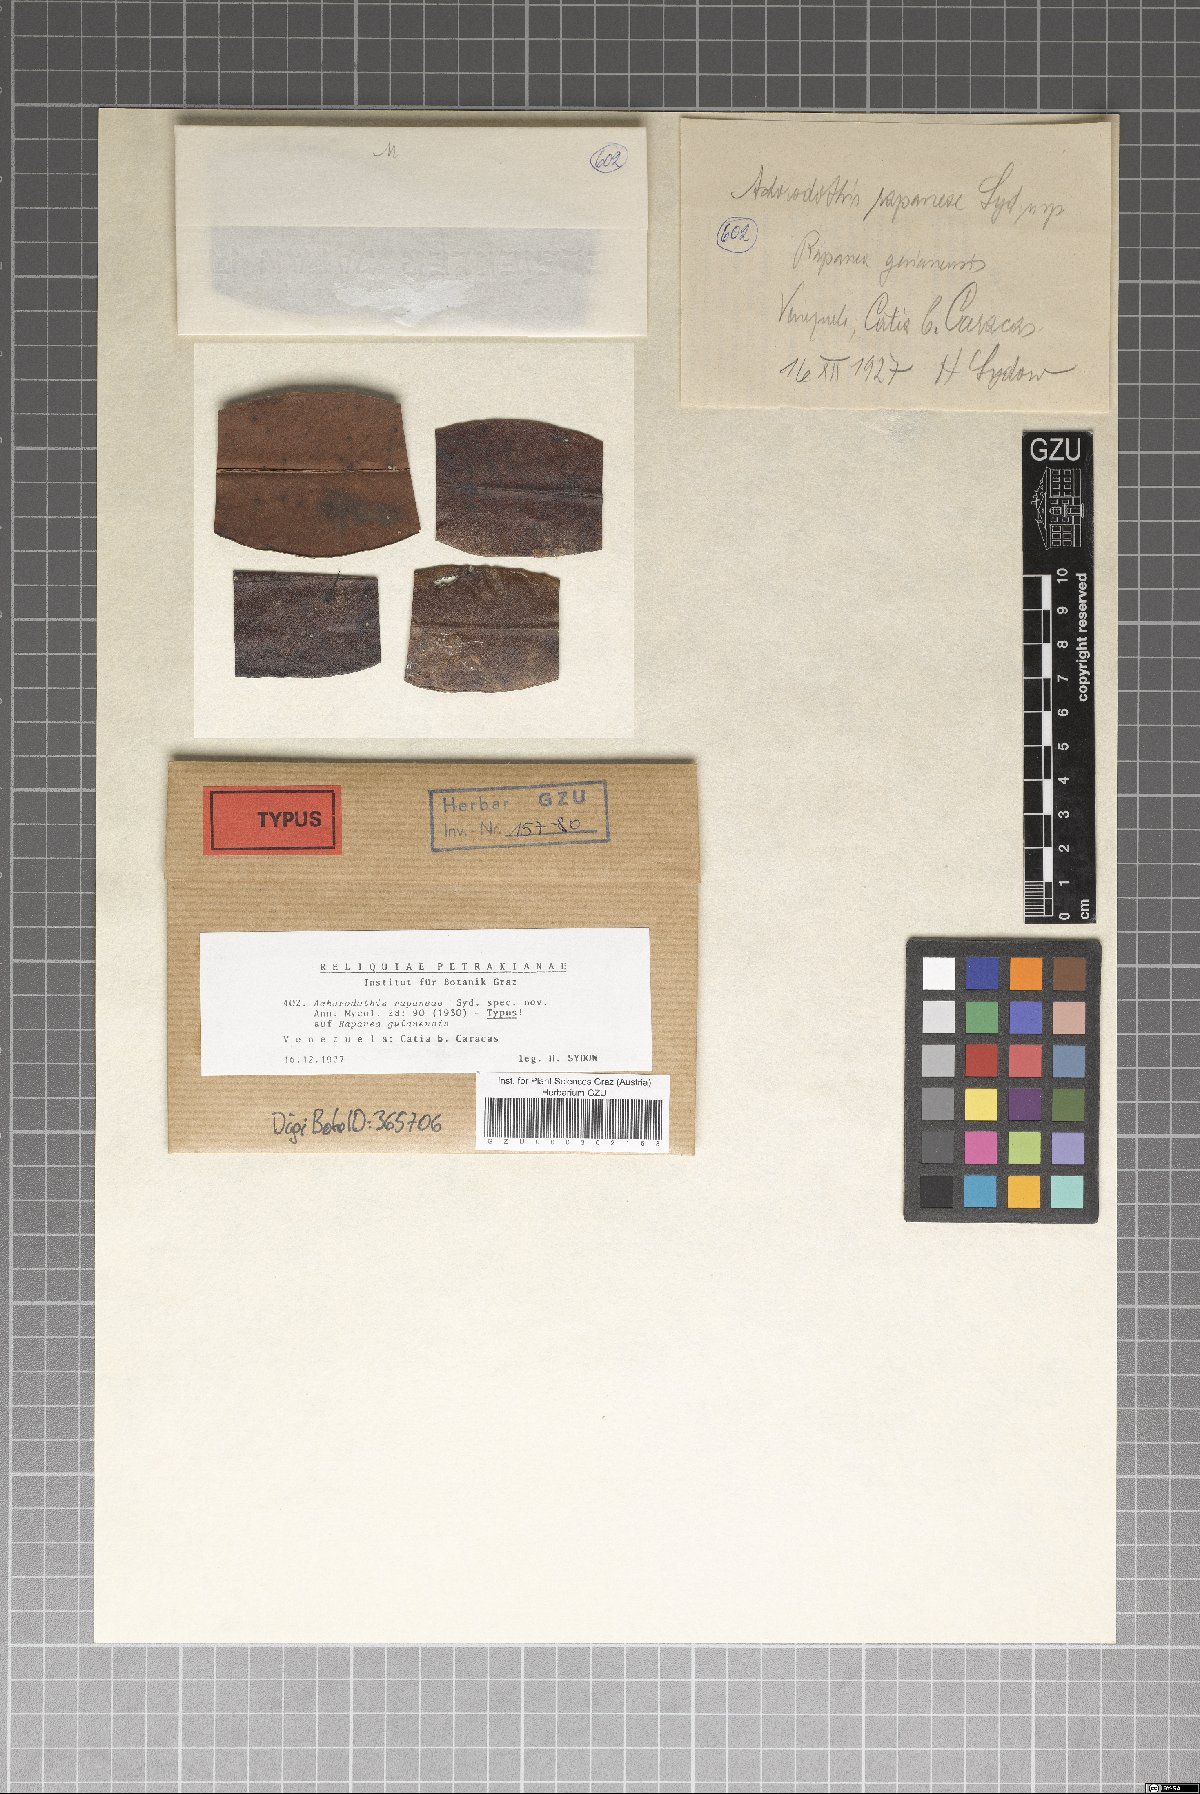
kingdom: Fungi
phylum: Ascomycota
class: Dothideomycetes
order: Mycosphaerellales
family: Mycosphaerellaceae
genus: Achorodothis
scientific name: Achorodothis rapaneae
